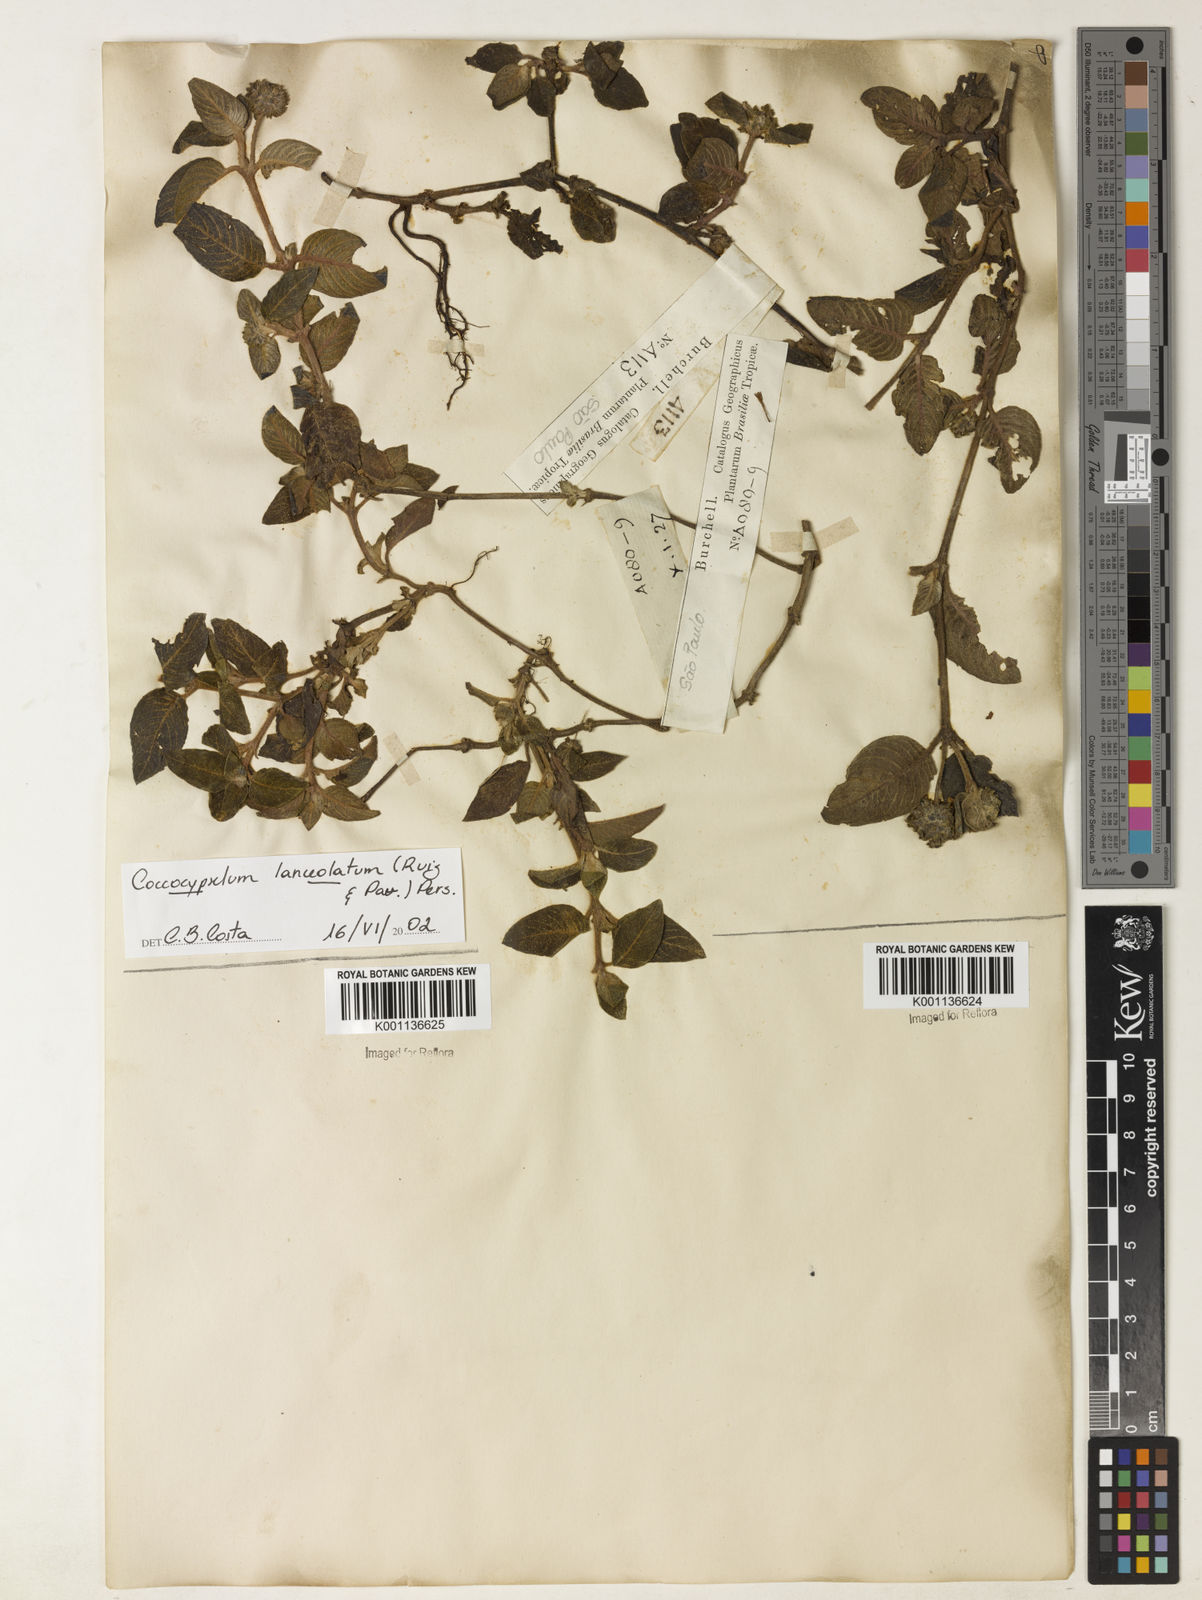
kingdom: Plantae
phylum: Tracheophyta
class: Magnoliopsida
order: Gentianales
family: Rubiaceae
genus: Coccocypselum
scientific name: Coccocypselum lanceolatum
